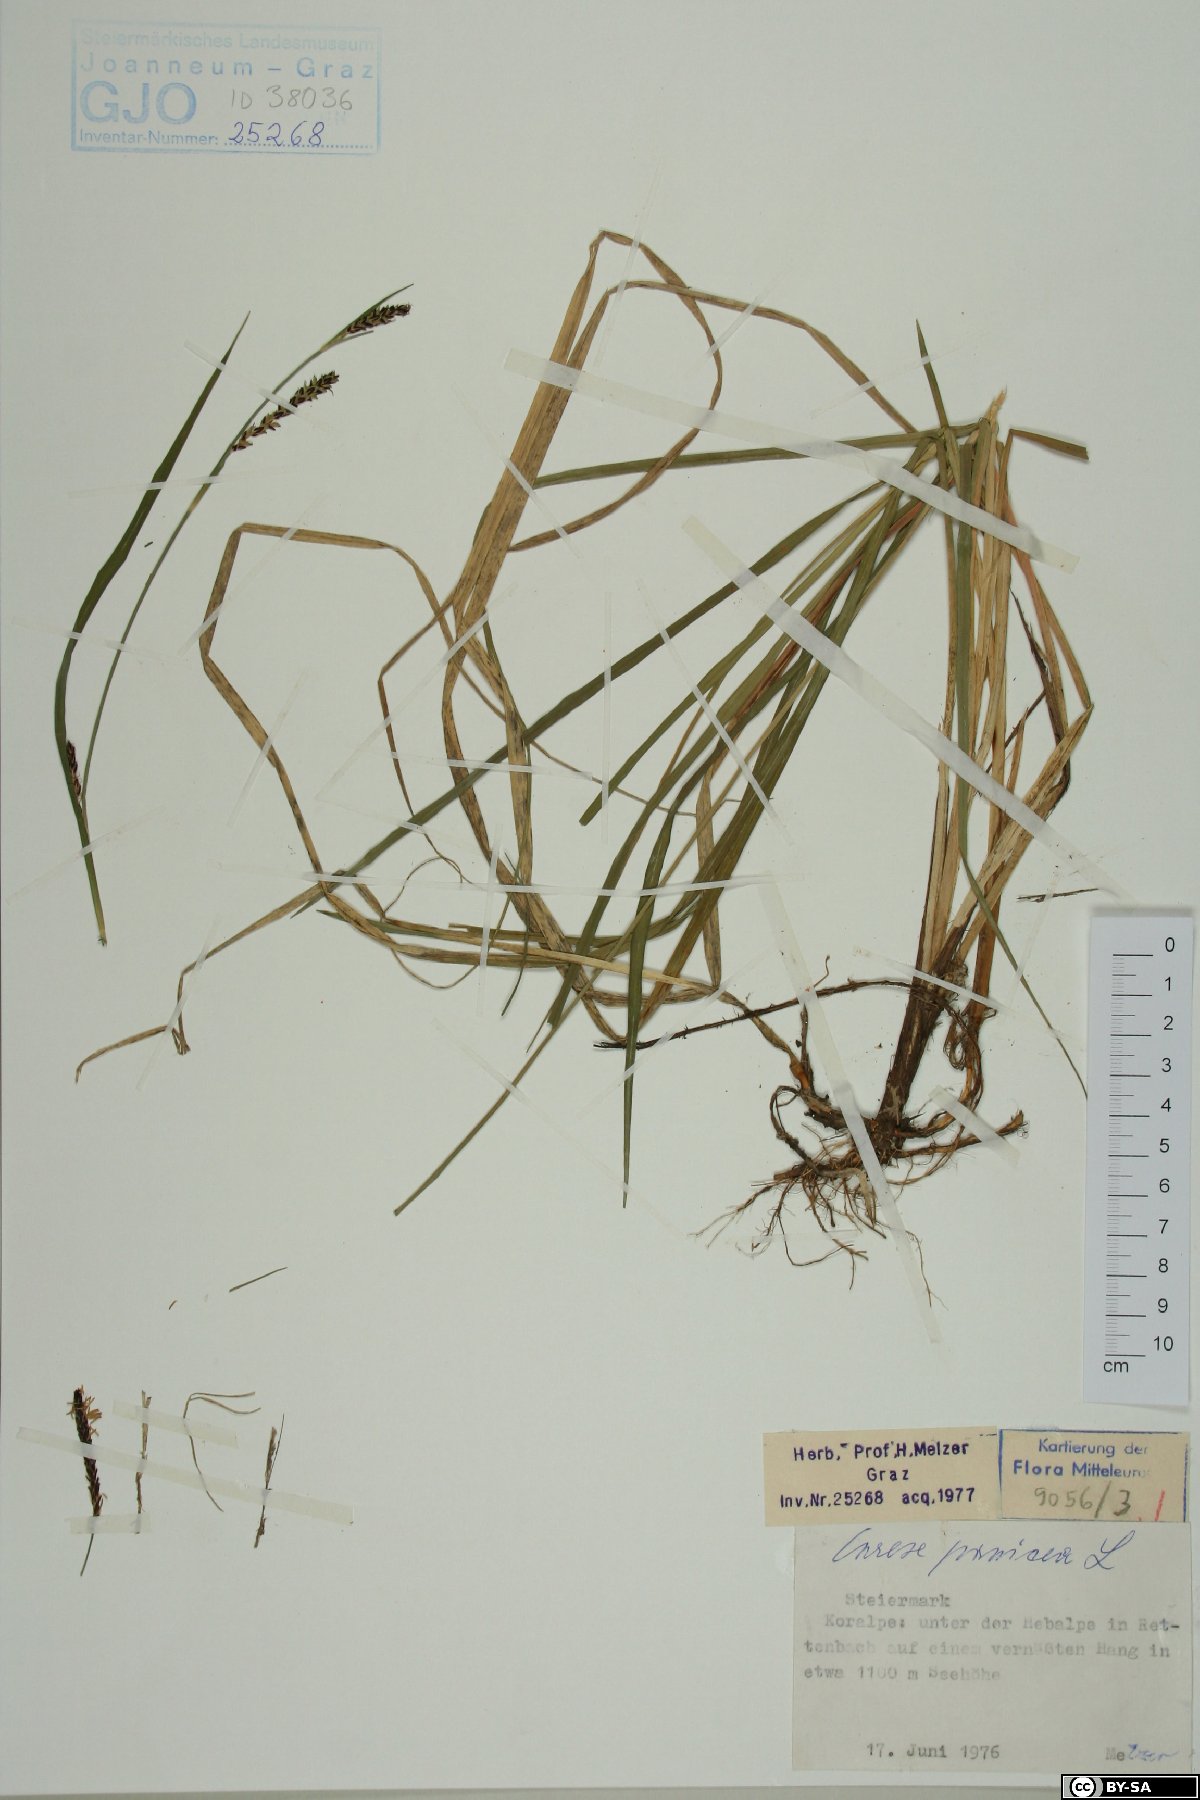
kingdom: Plantae
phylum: Tracheophyta
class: Liliopsida
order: Poales
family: Cyperaceae
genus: Carex
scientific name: Carex panicea
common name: Carnation sedge
